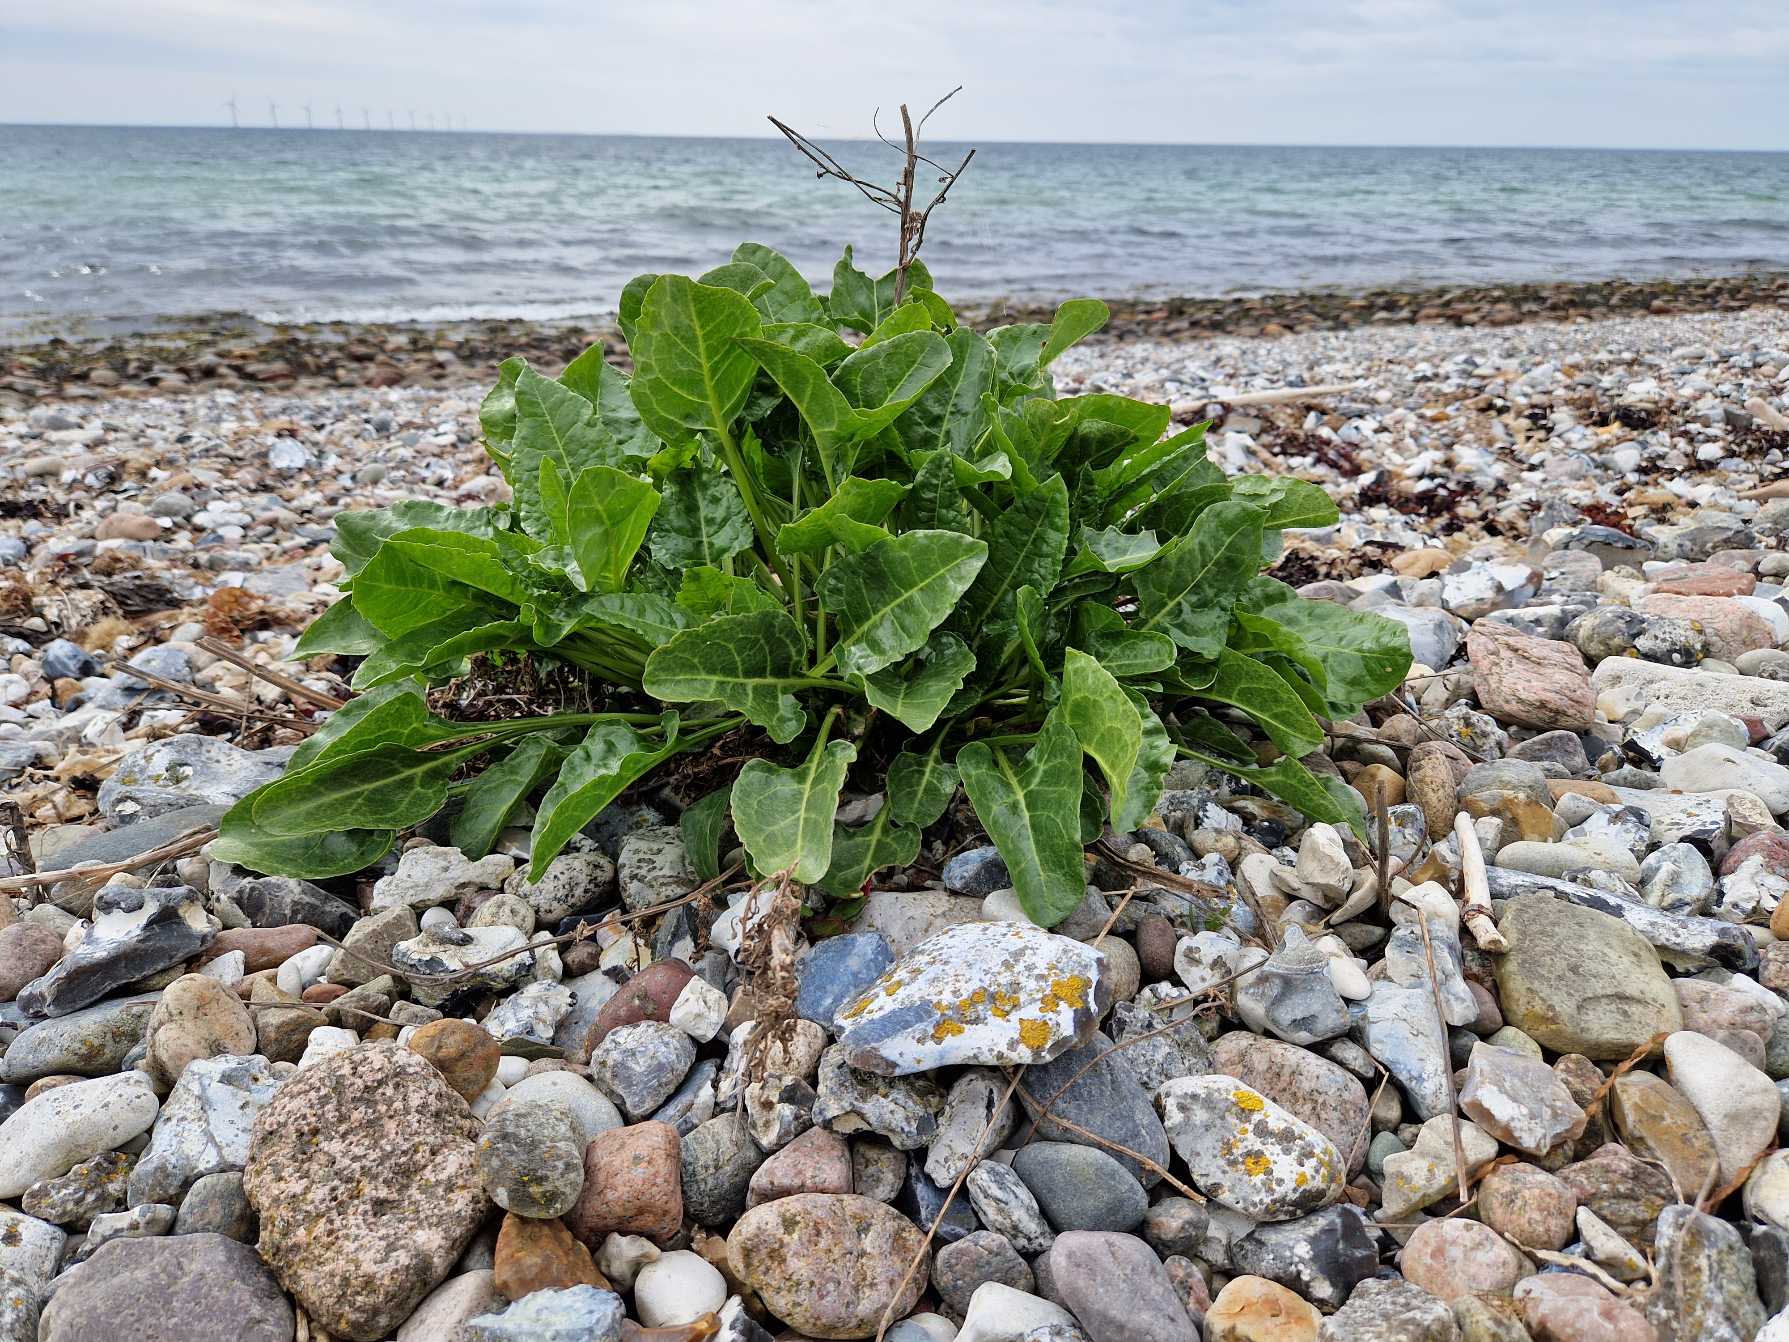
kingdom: Plantae
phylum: Tracheophyta
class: Magnoliopsida
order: Caryophyllales
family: Amaranthaceae
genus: Beta
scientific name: Beta maritima
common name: Strand-bede
